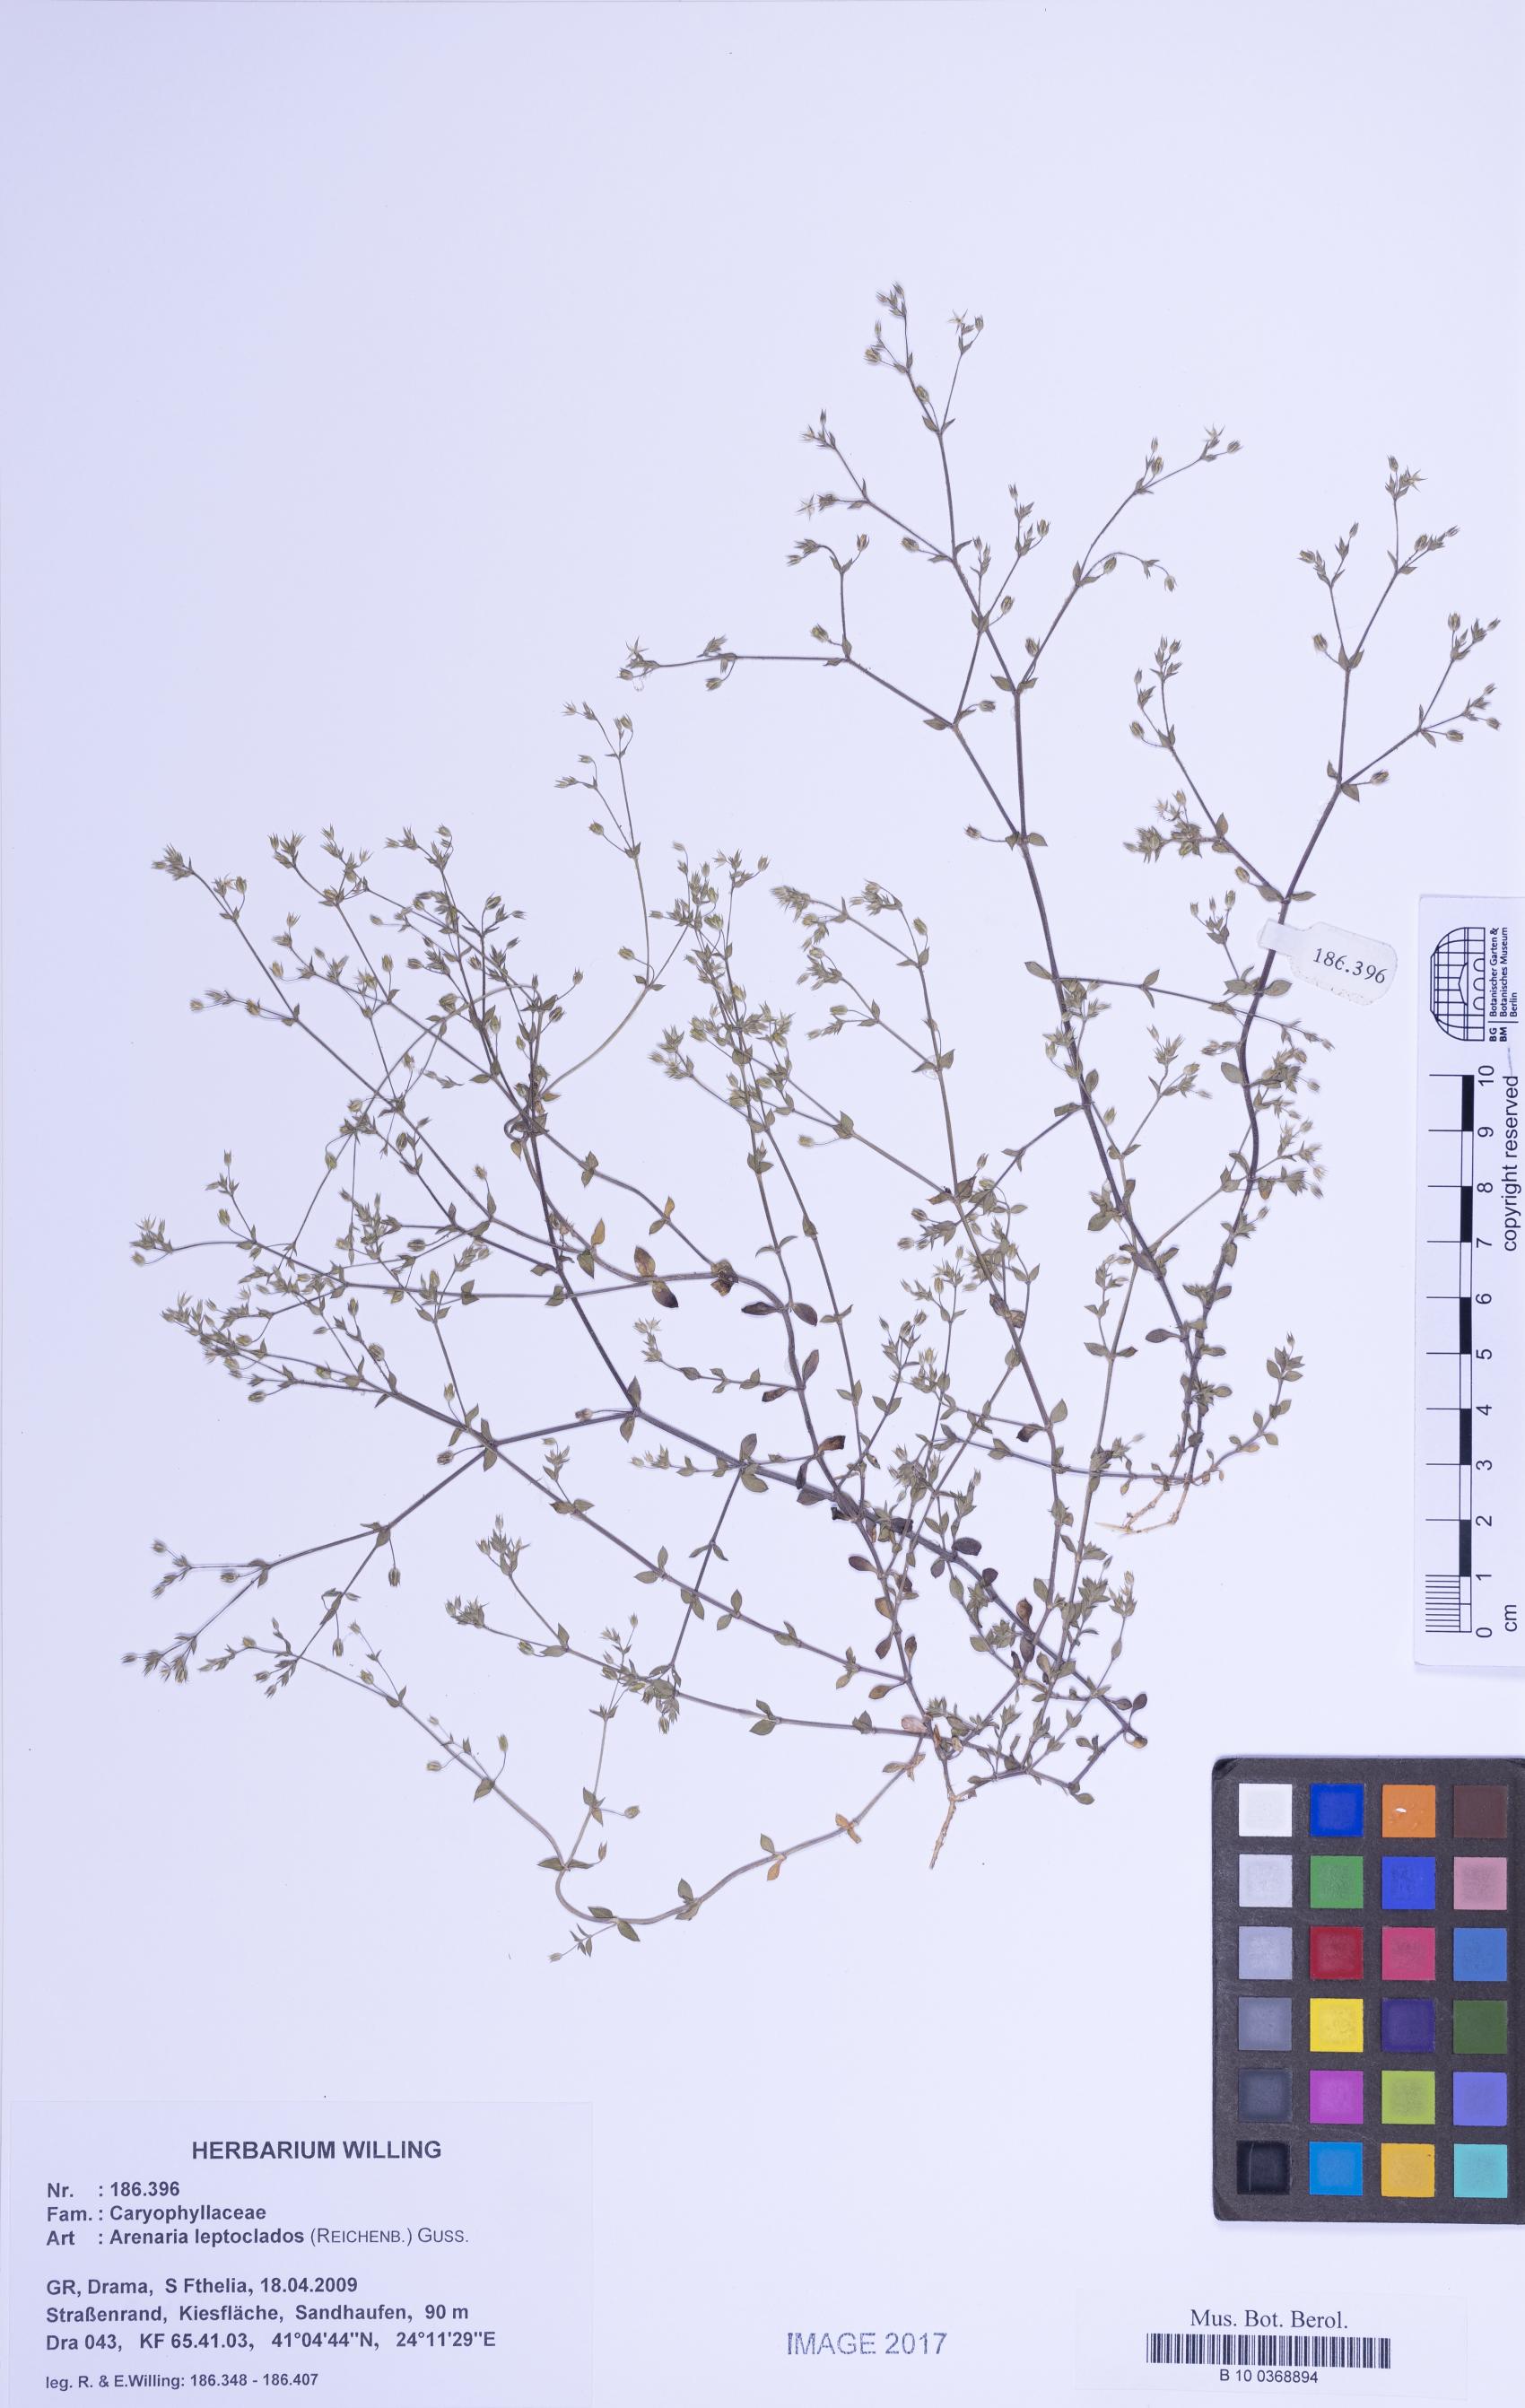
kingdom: Plantae
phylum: Tracheophyta
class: Magnoliopsida
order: Caryophyllales
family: Caryophyllaceae
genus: Arenaria
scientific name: Arenaria leptoclados
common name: Thyme-leaved sandwort
